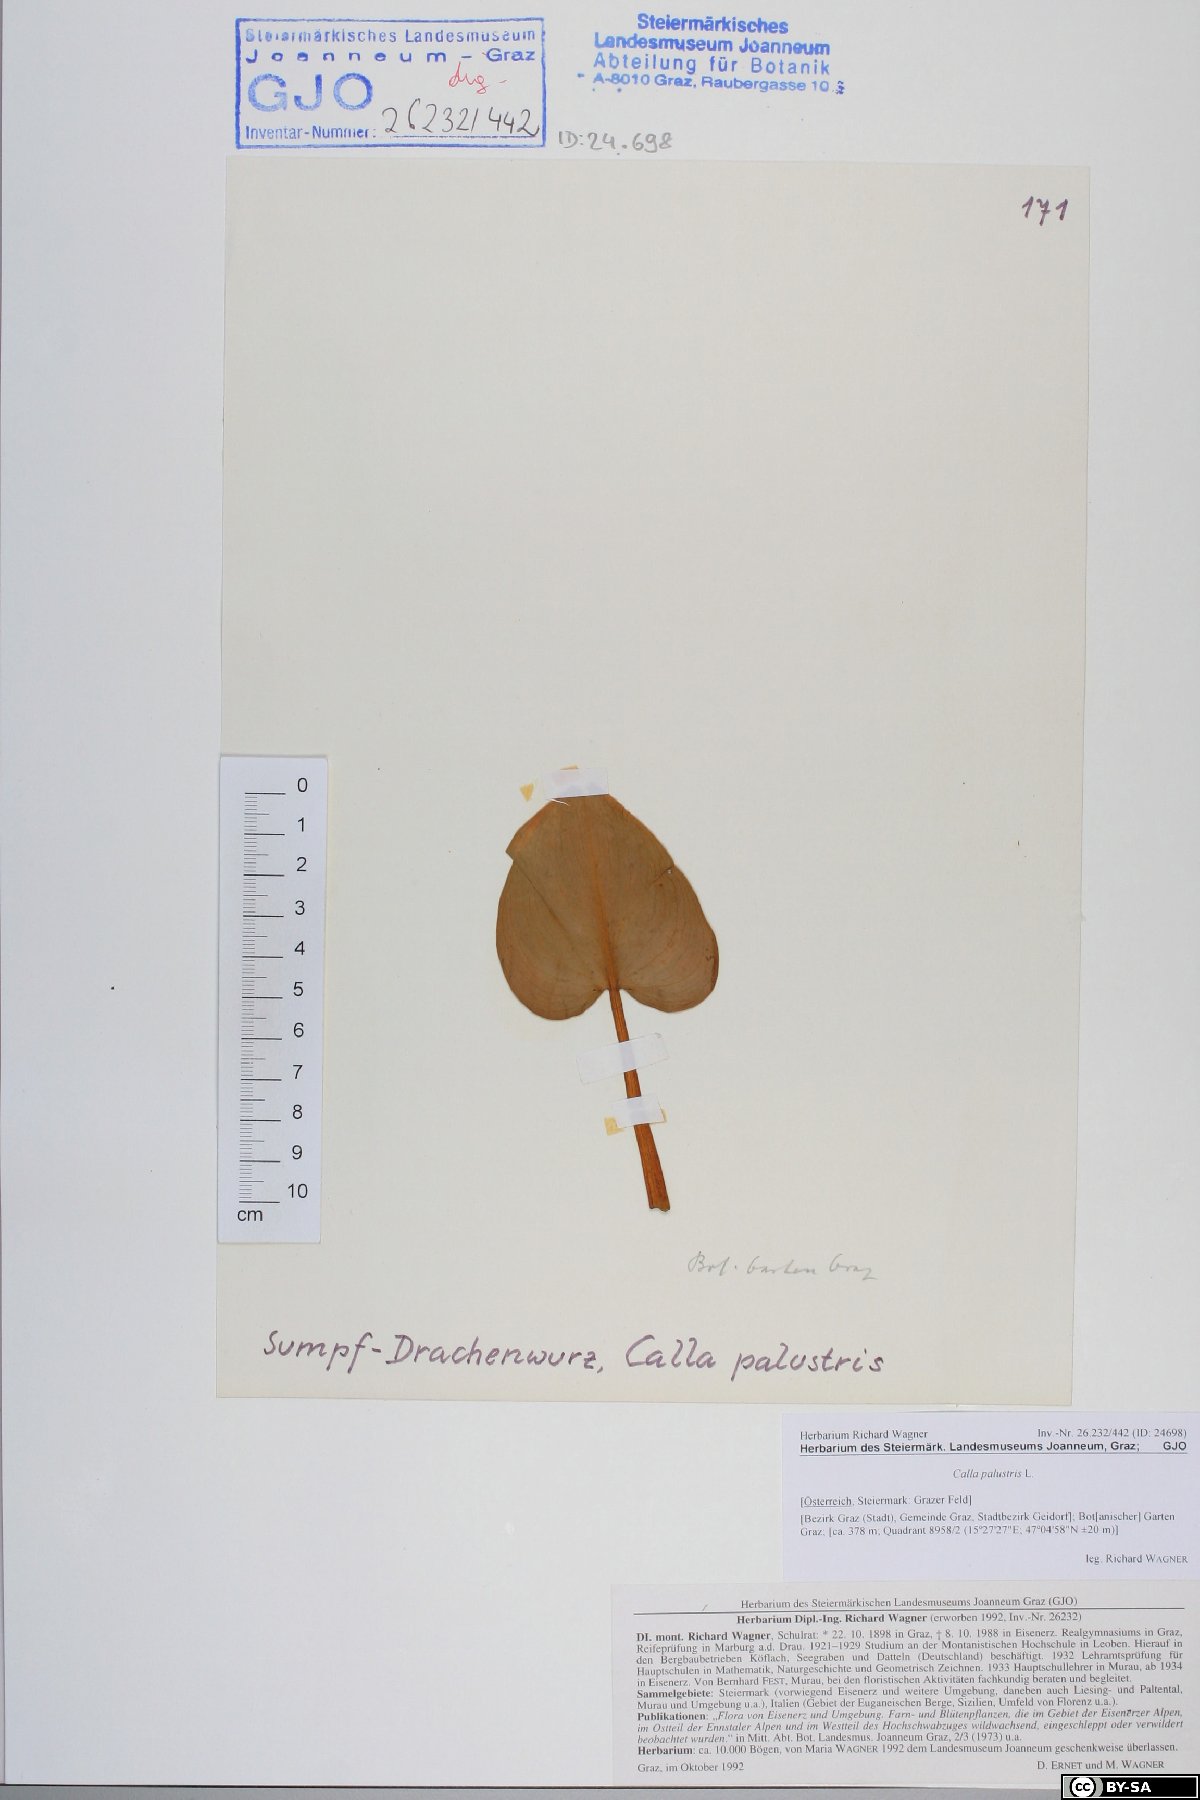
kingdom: Plantae
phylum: Tracheophyta
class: Liliopsida
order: Alismatales
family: Araceae
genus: Calla
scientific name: Calla palustris
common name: Bog arum
